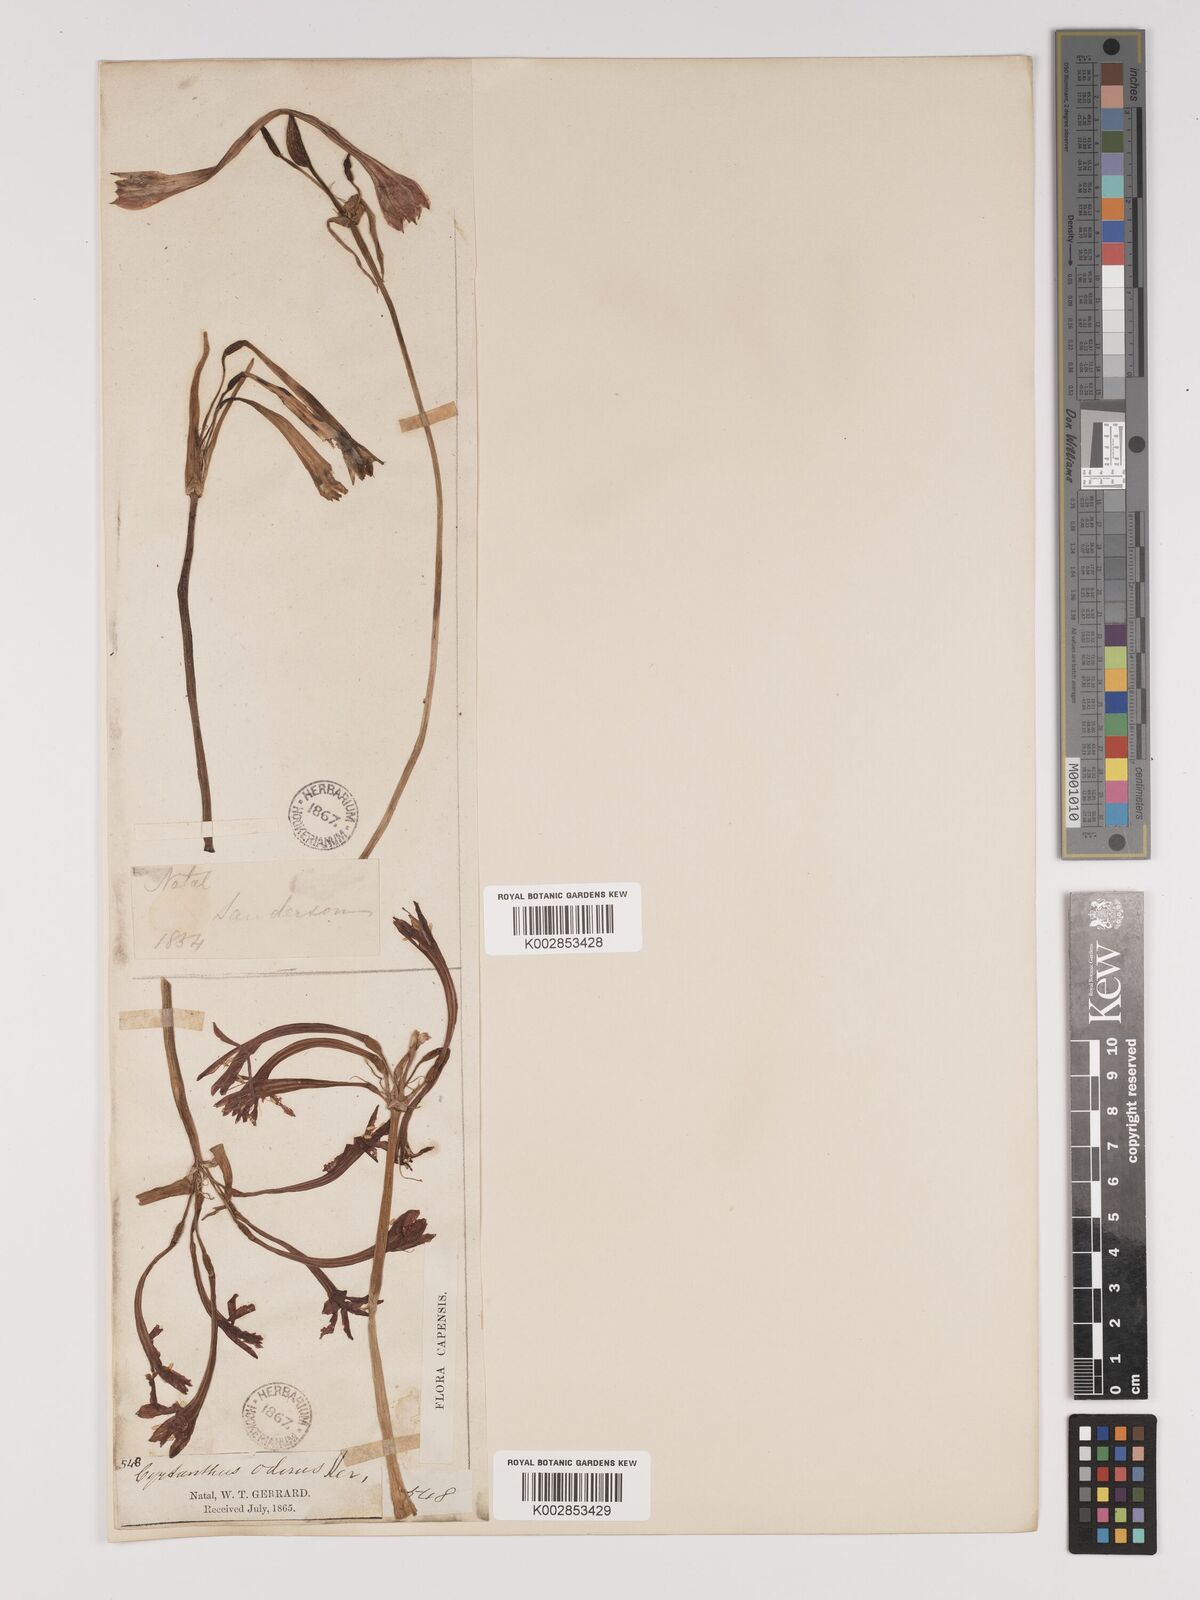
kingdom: Plantae
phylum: Tracheophyta
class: Liliopsida
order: Asparagales
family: Amaryllidaceae
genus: Cyrtanthus
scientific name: Cyrtanthus contractus
